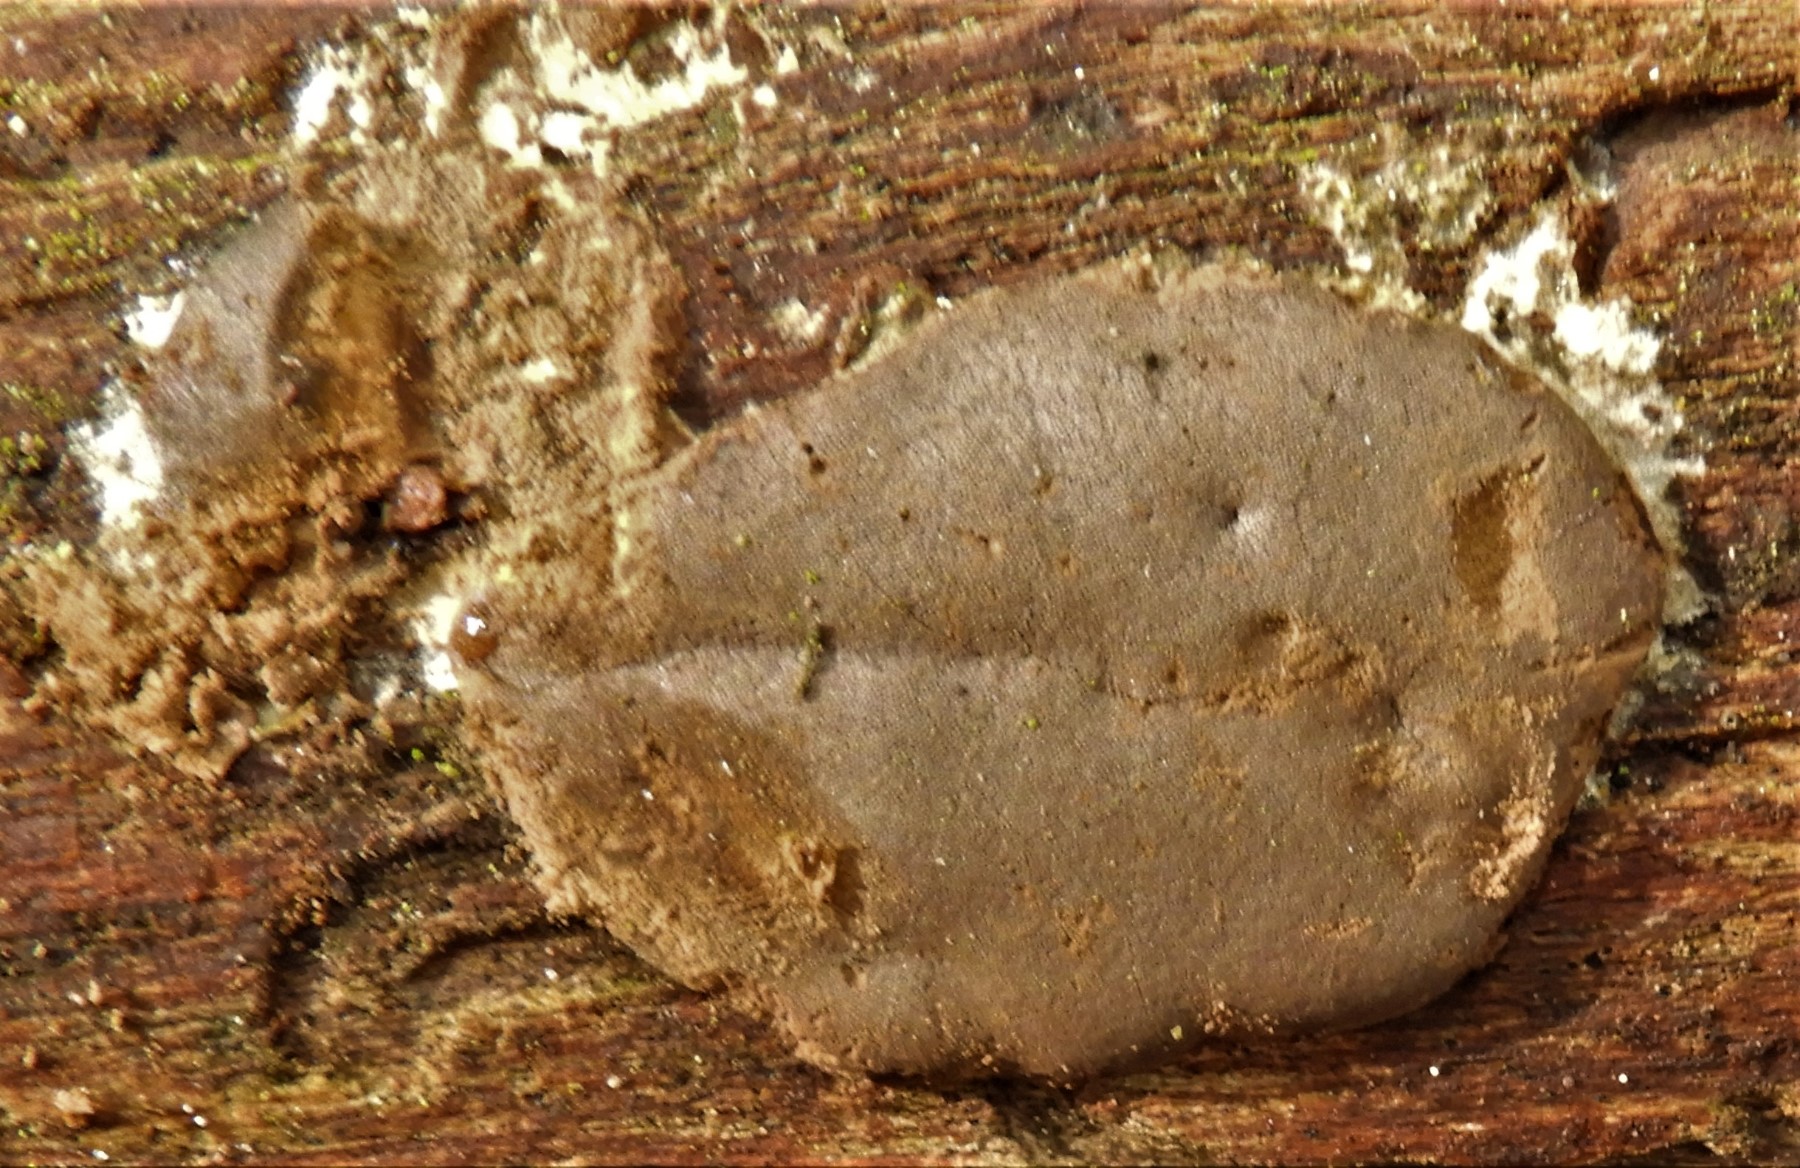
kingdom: Protozoa
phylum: Mycetozoa
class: Myxomycetes
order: Trichiales
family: Dictydiaethaliaceae
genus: Dictydiaethalium
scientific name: Dictydiaethalium plumbeum
